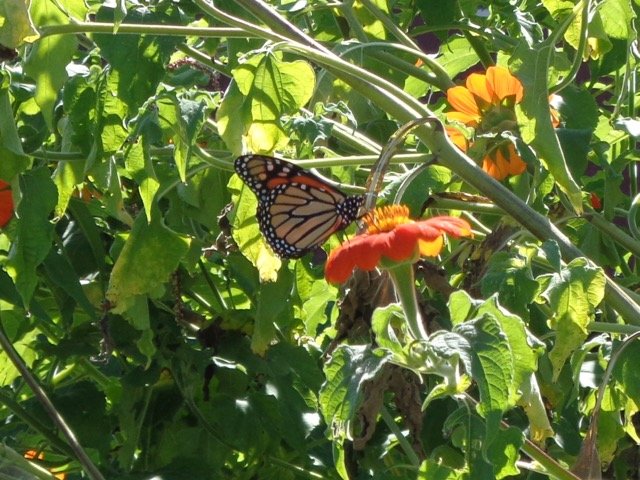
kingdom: Animalia
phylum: Arthropoda
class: Insecta
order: Lepidoptera
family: Nymphalidae
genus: Danaus
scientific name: Danaus plexippus
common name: Monarch
